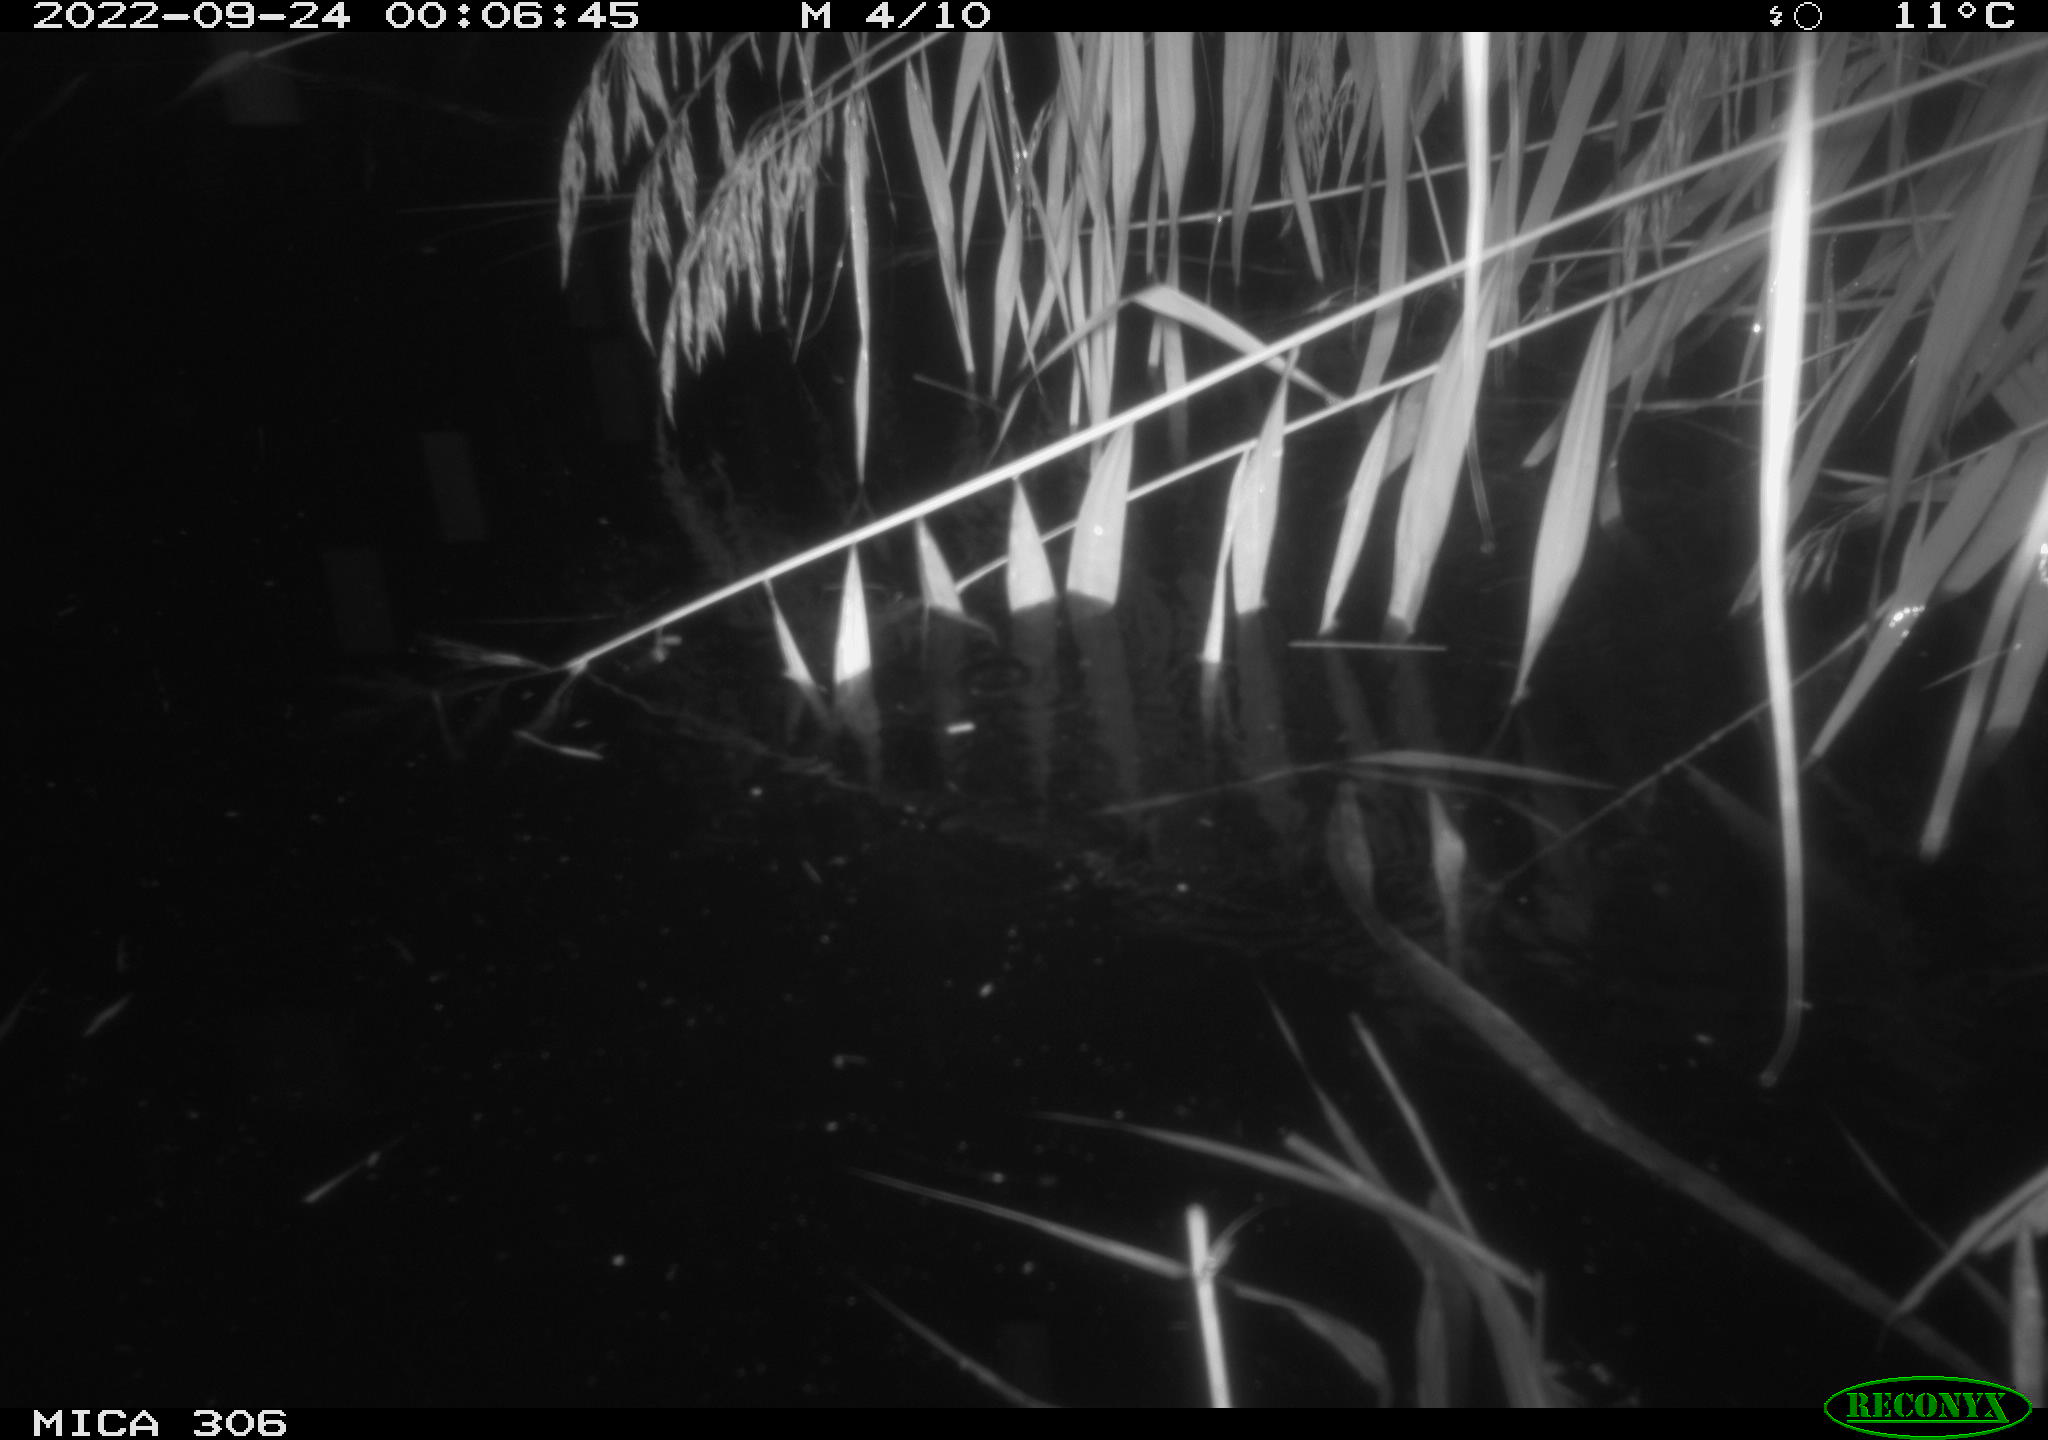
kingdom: Animalia
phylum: Chordata
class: Mammalia
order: Rodentia
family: Muridae
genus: Rattus
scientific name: Rattus norvegicus
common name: Brown rat
